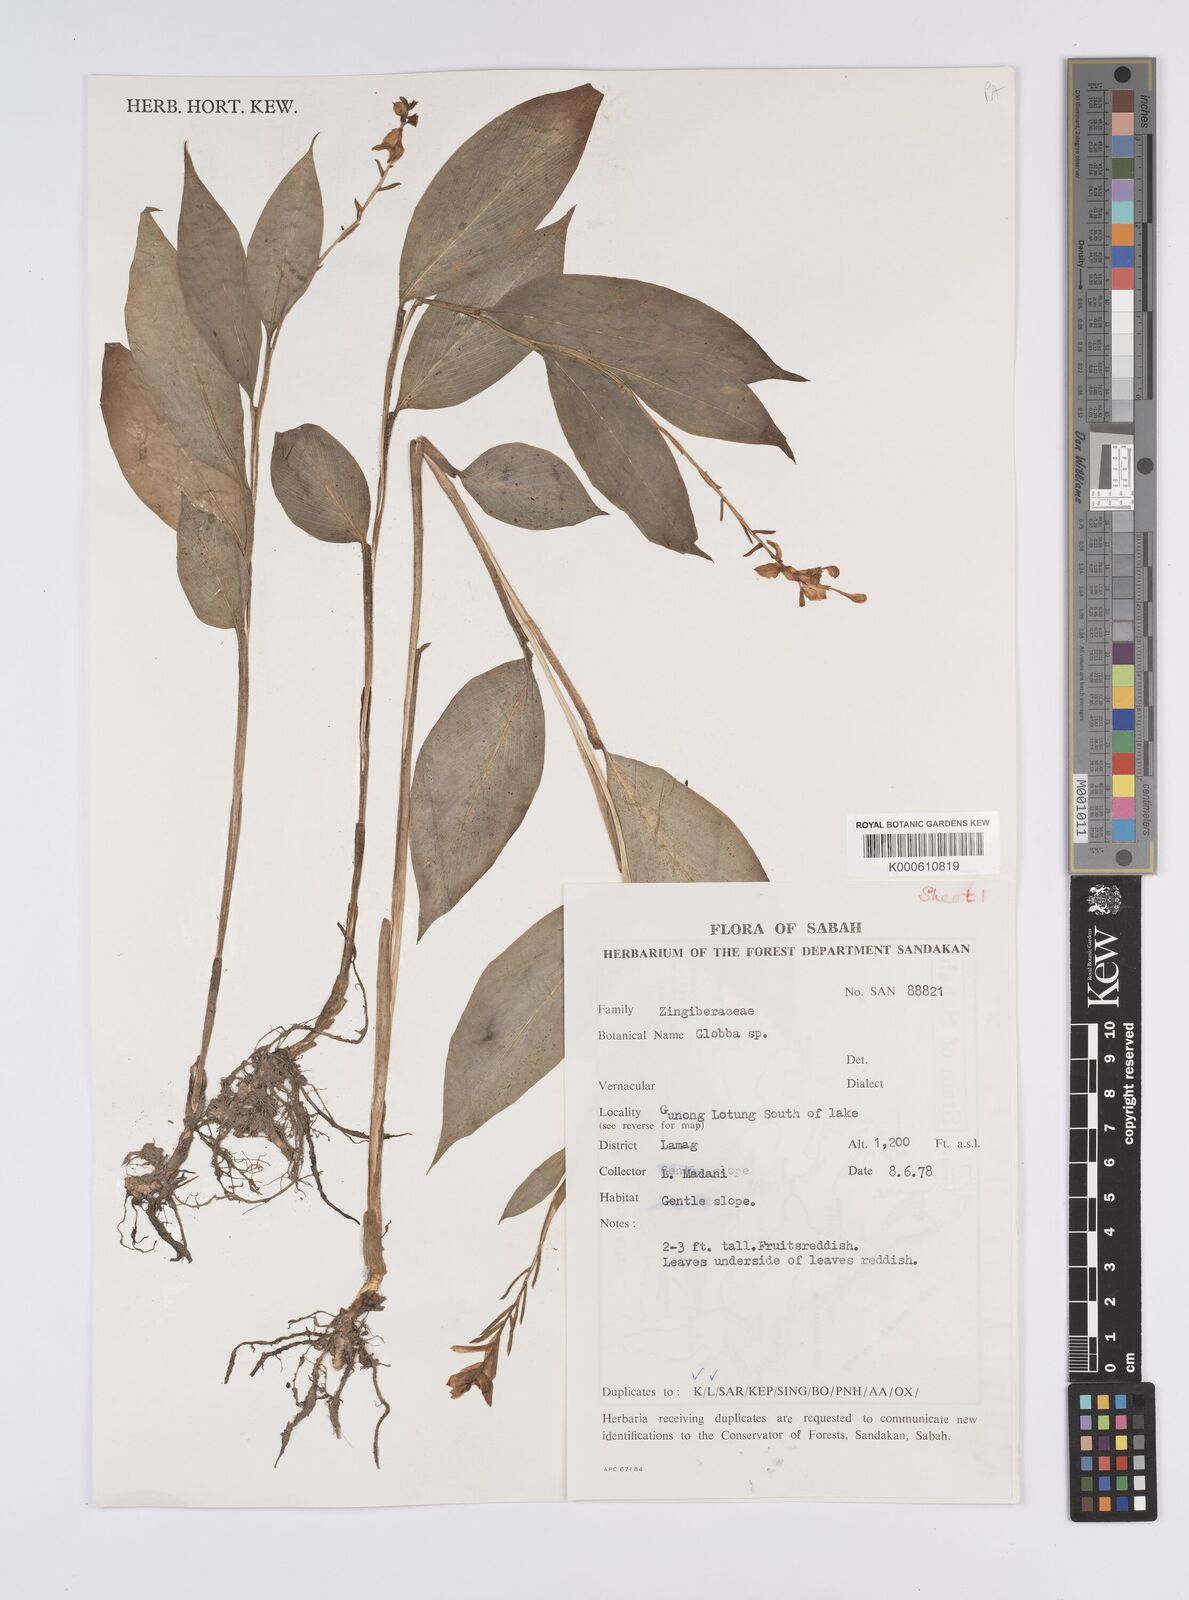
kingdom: Plantae
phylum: Tracheophyta
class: Liliopsida
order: Zingiberales
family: Zingiberaceae
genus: Globba
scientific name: Globba atrosanguinea
